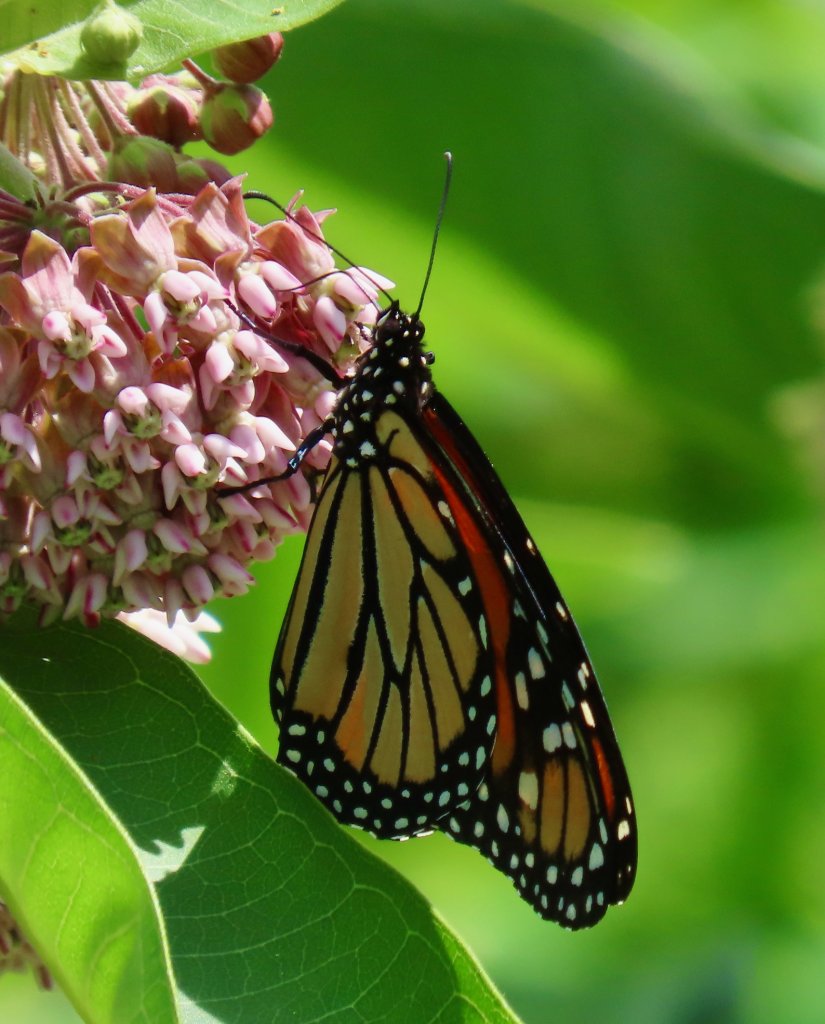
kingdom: Animalia
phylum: Arthropoda
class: Insecta
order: Lepidoptera
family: Nymphalidae
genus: Danaus
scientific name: Danaus plexippus
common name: Monarch
